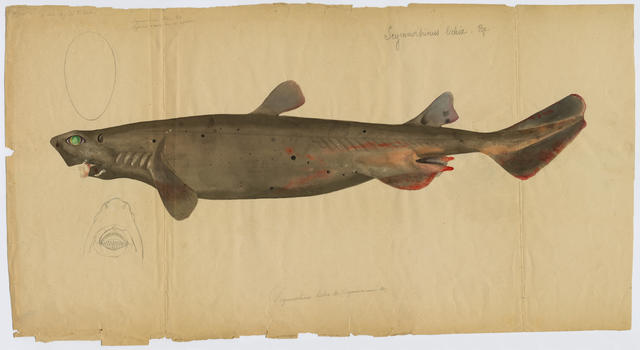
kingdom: Animalia
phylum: Chordata
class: Elasmobranchii
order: Squaliformes
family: Dalatiidae
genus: Dalatias
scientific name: Dalatias licha
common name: Kitefin shark
